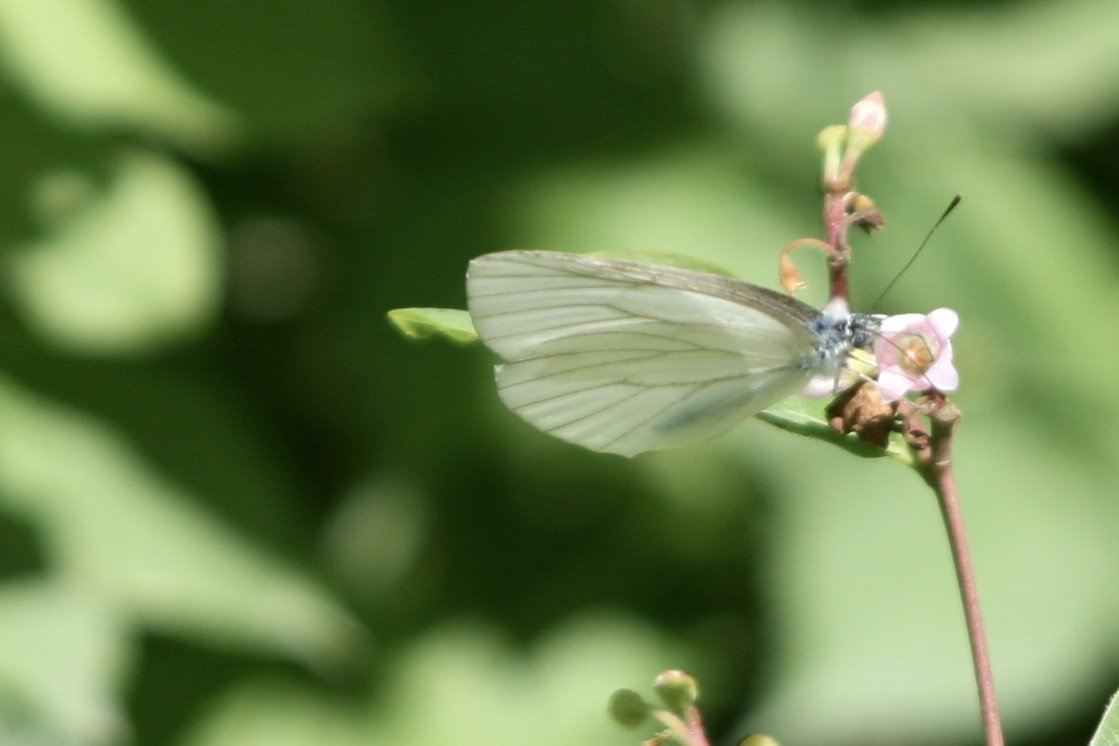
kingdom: Animalia
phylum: Arthropoda
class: Insecta
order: Lepidoptera
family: Pieridae
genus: Pieris
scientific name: Pieris oleracea
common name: Mustard White
